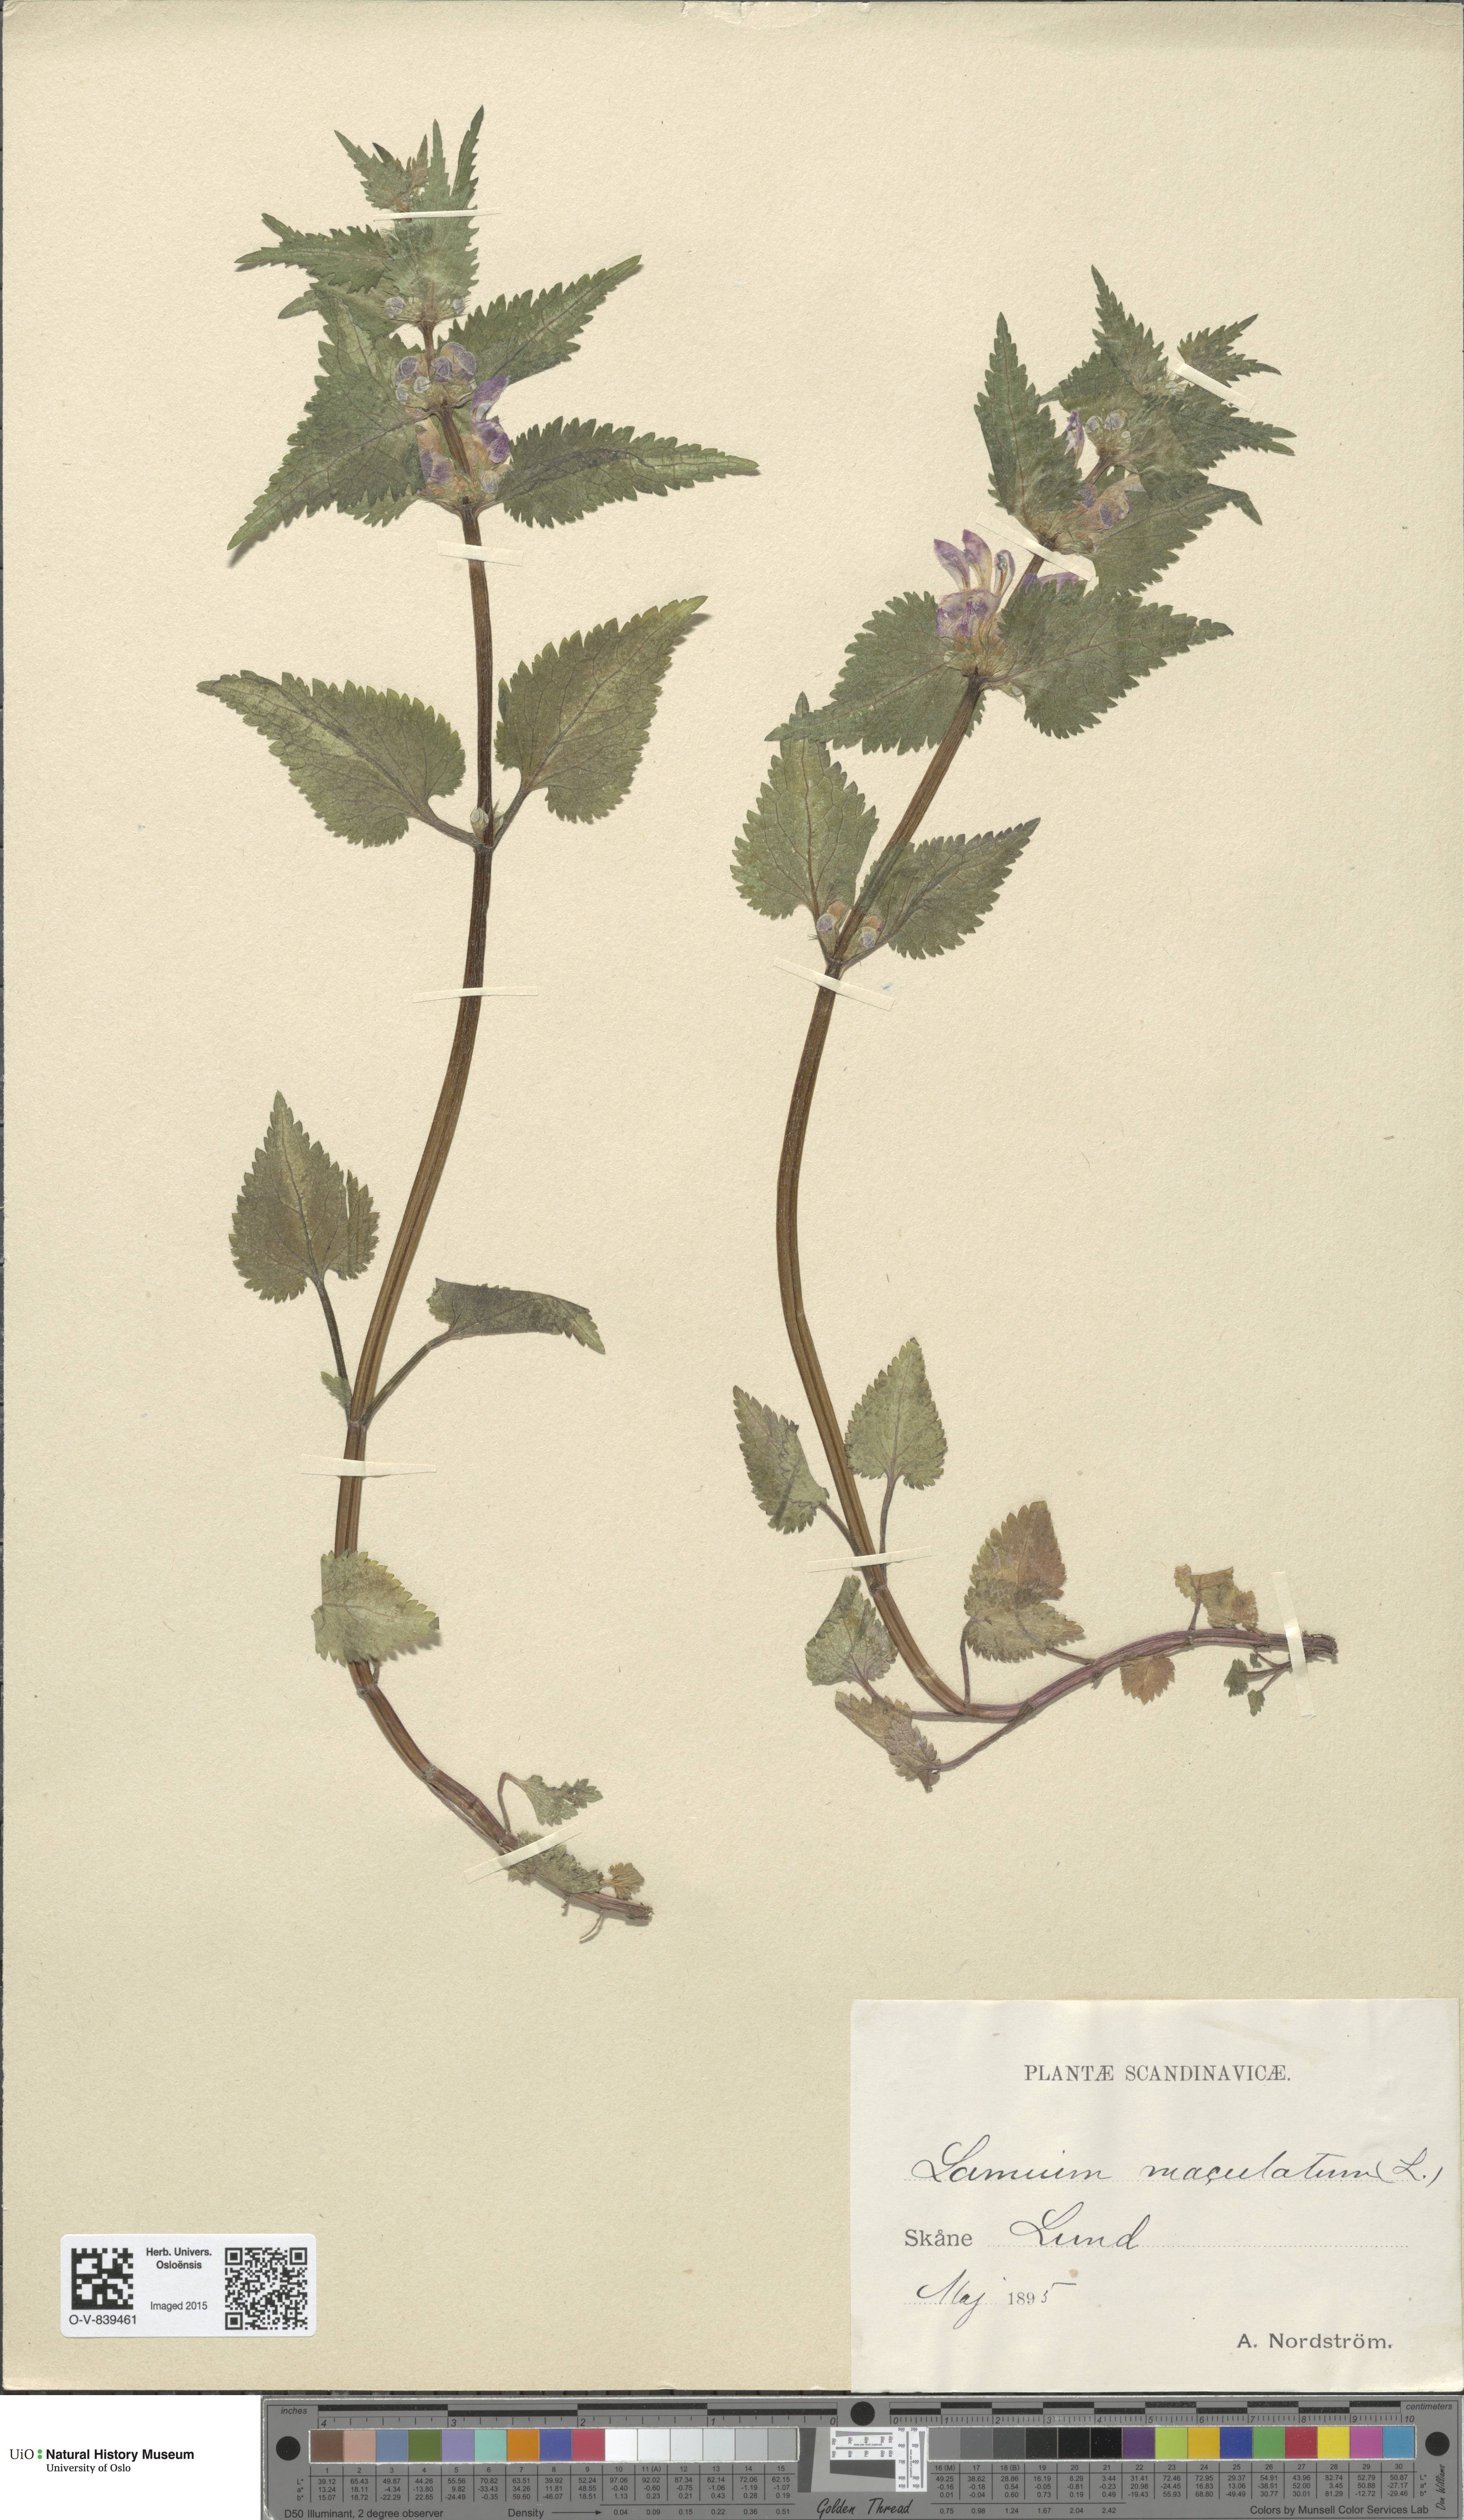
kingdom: Plantae
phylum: Tracheophyta
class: Magnoliopsida
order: Lamiales
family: Lamiaceae
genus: Lamium
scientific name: Lamium maculatum
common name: Spotted dead-nettle
